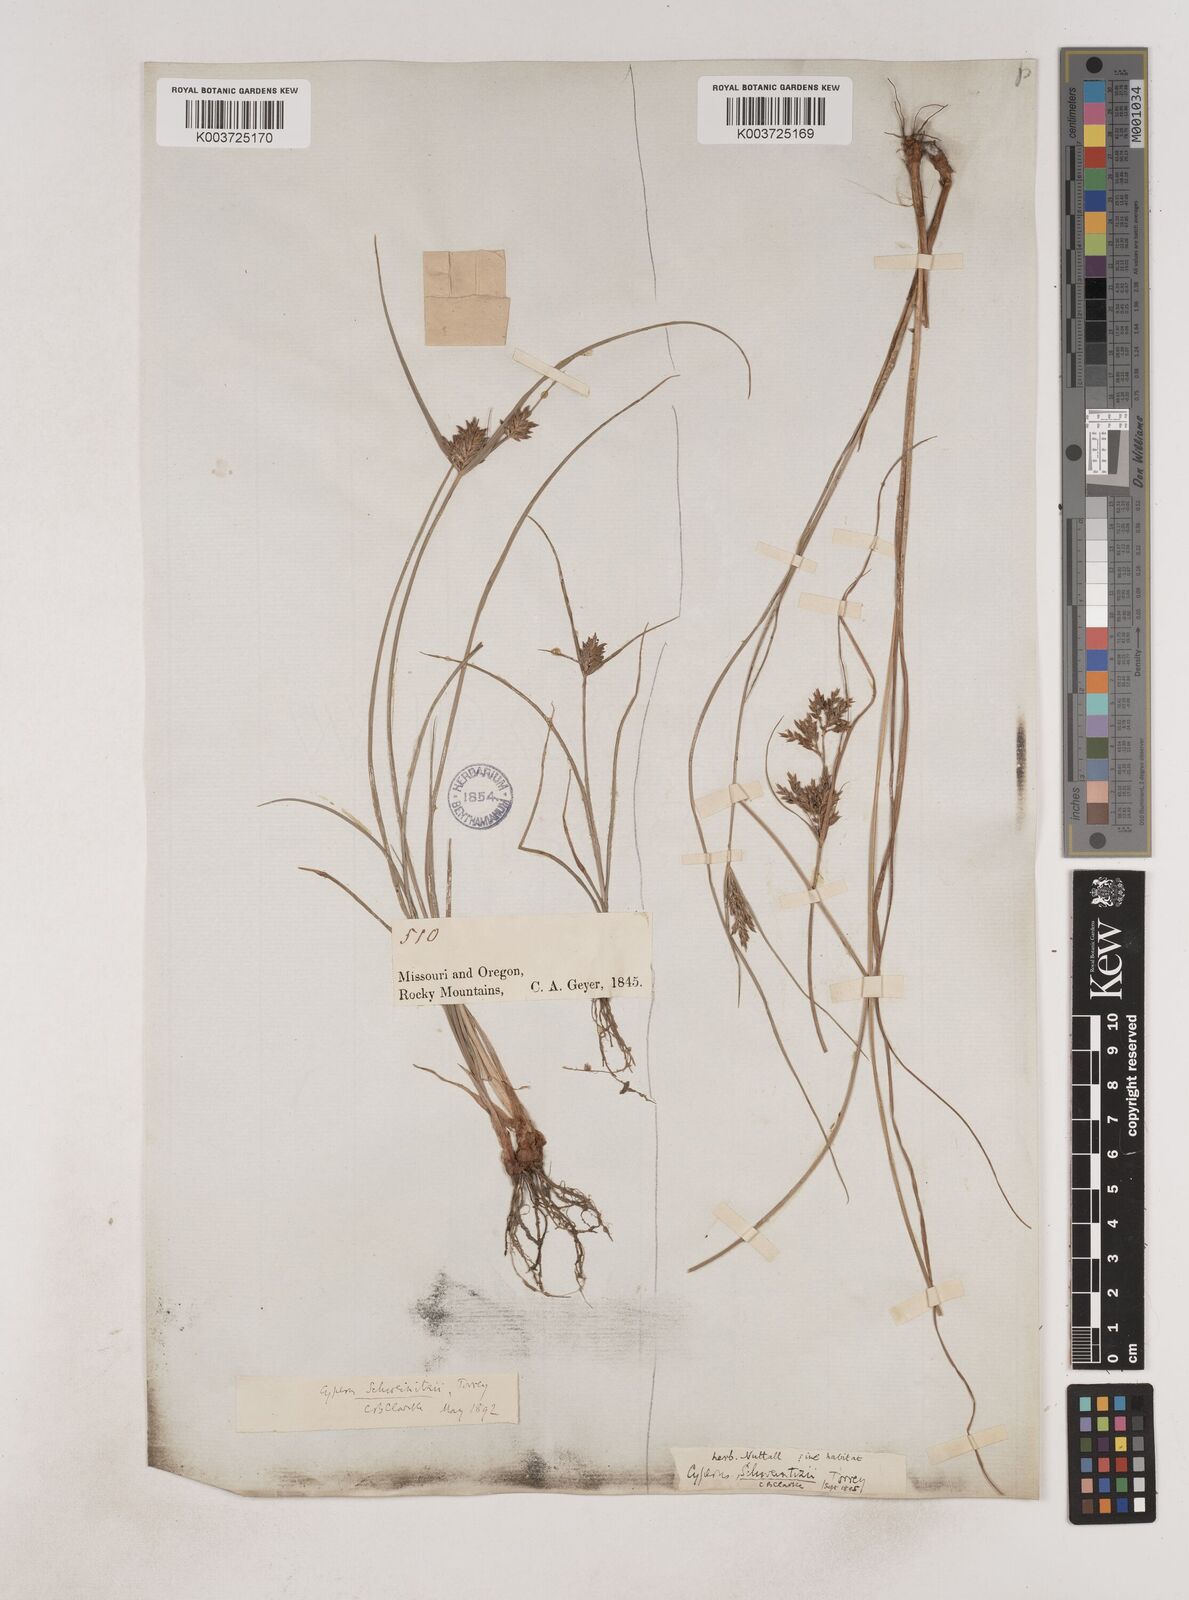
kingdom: Plantae
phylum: Tracheophyta
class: Liliopsida
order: Poales
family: Cyperaceae
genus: Cyperus
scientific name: Cyperus schweinitzii
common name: Schweinitz's cyperus
